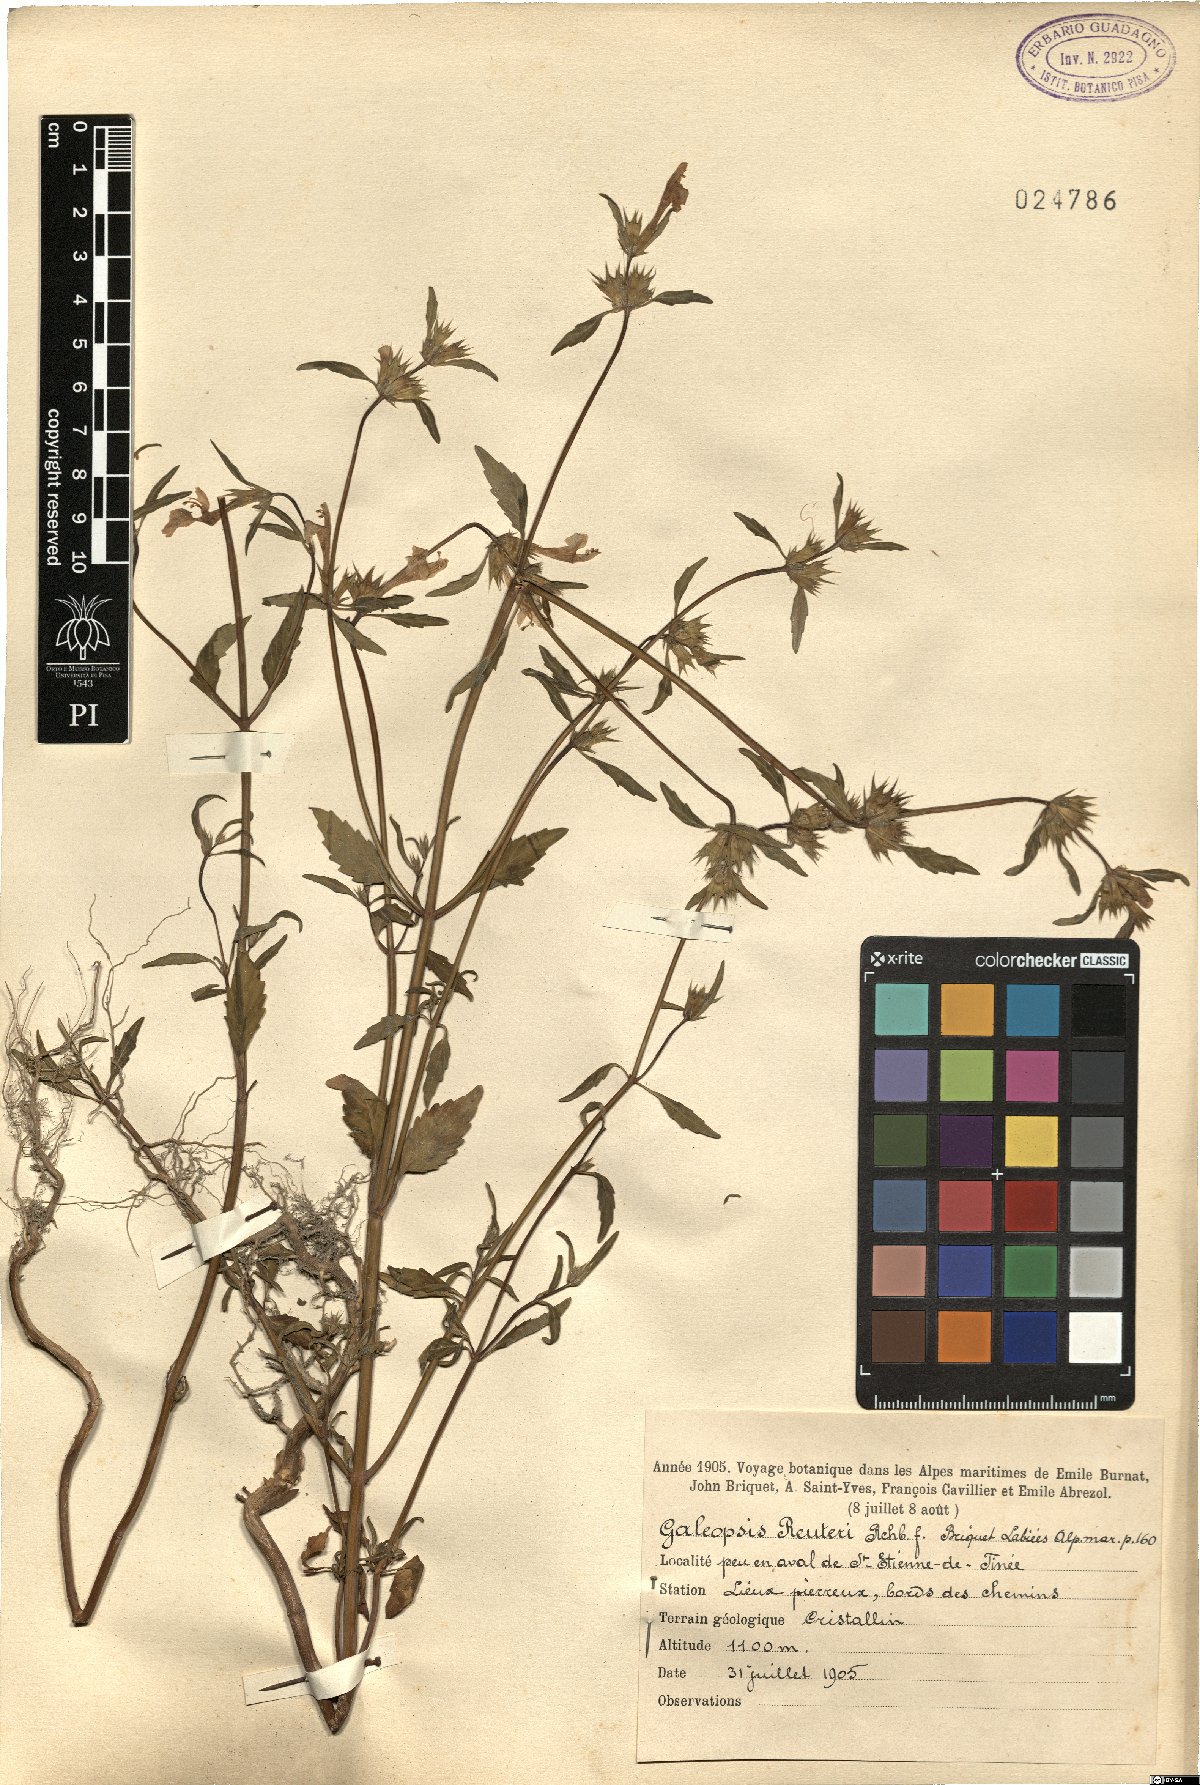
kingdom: Plantae
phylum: Tracheophyta
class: Magnoliopsida
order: Lamiales
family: Lamiaceae
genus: Galeopsis
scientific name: Galeopsis reuteri
